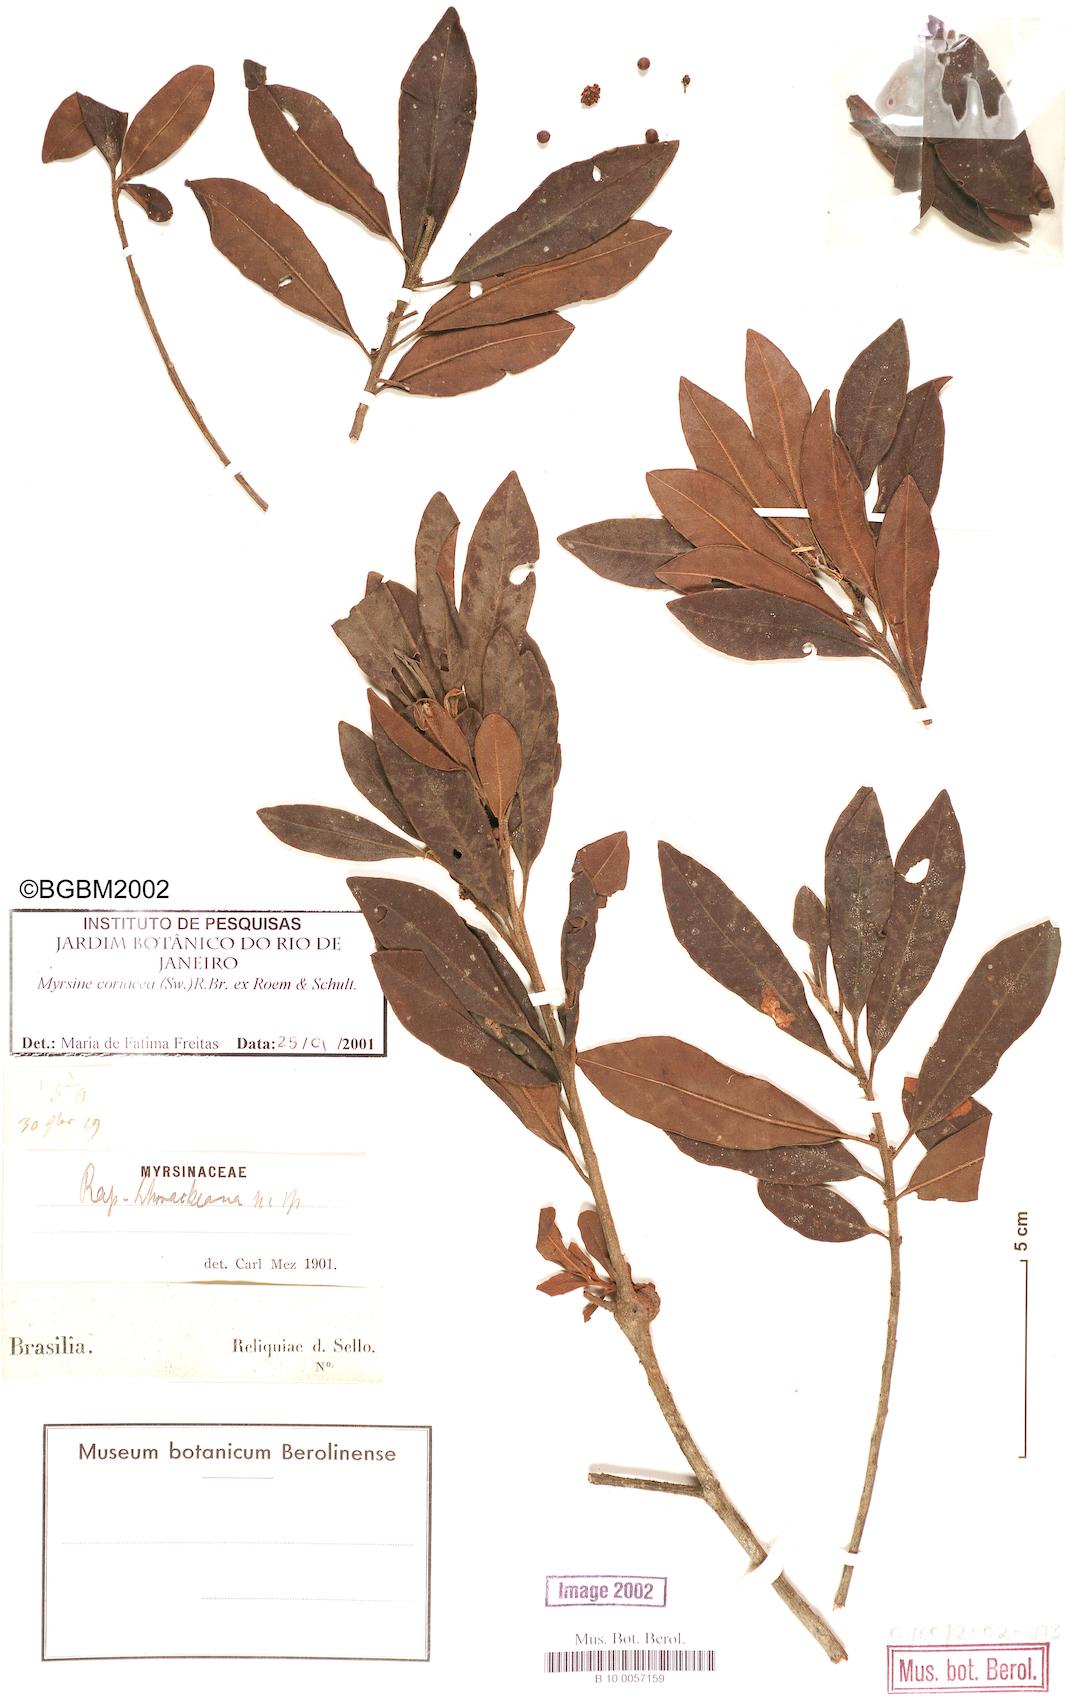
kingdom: Plantae
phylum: Tracheophyta
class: Magnoliopsida
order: Ericales
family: Primulaceae
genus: Myrsine
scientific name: Myrsine coriacea
